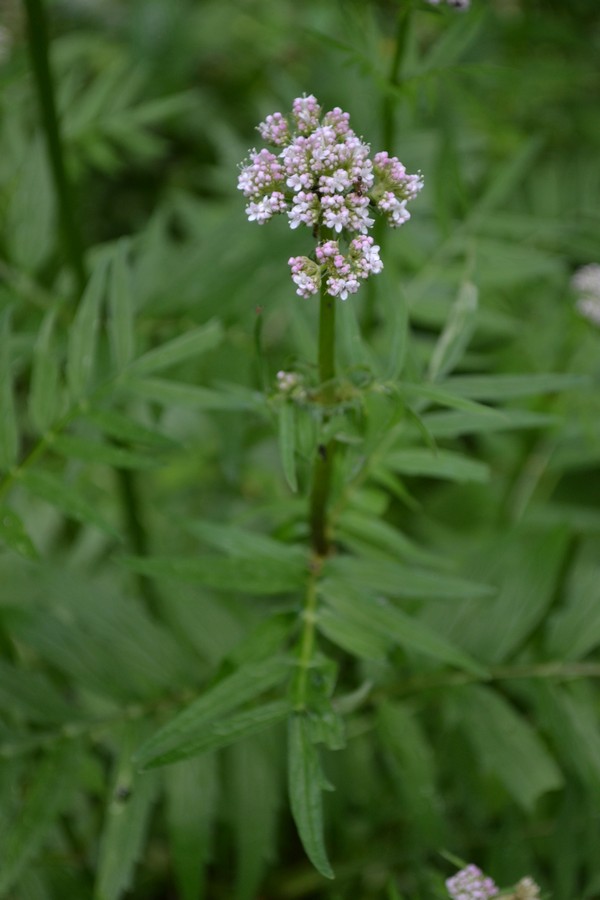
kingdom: Plantae
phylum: Tracheophyta
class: Magnoliopsida
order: Dipsacales
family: Caprifoliaceae
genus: Valeriana
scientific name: Valeriana officinalis
